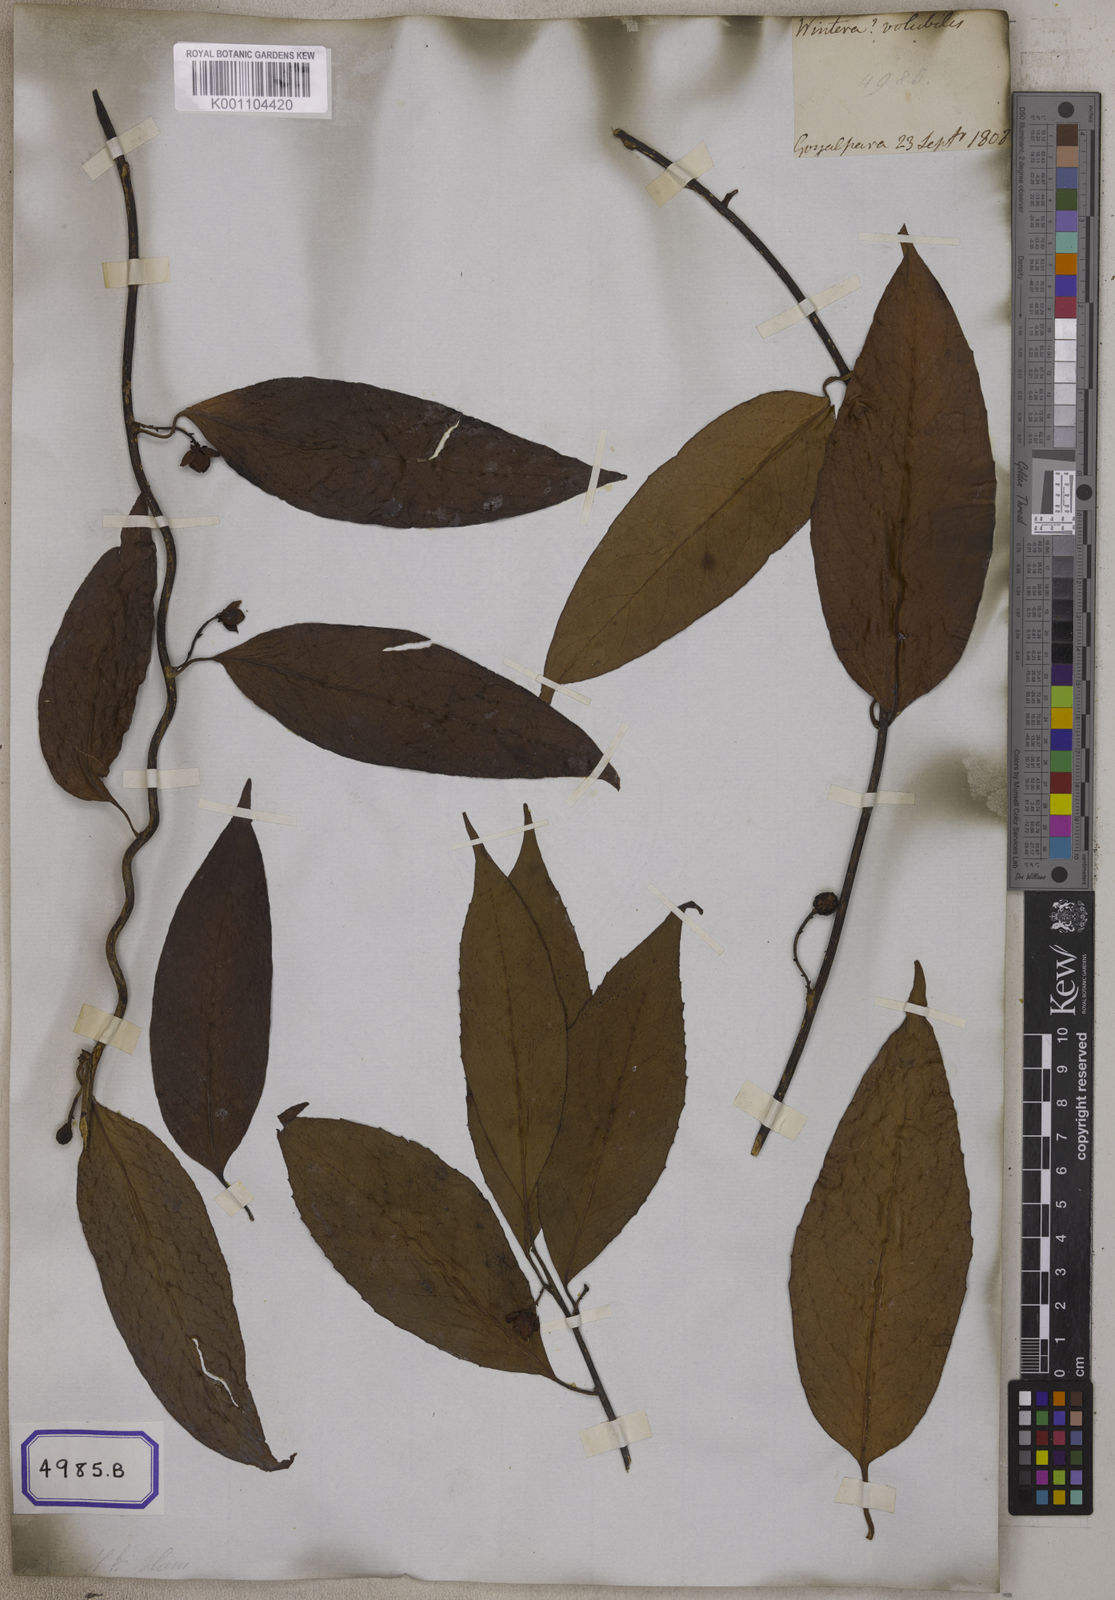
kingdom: Plantae
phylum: Tracheophyta
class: Magnoliopsida
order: Austrobaileyales
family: Schisandraceae
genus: Schisandra
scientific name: Schisandra grandiflora
